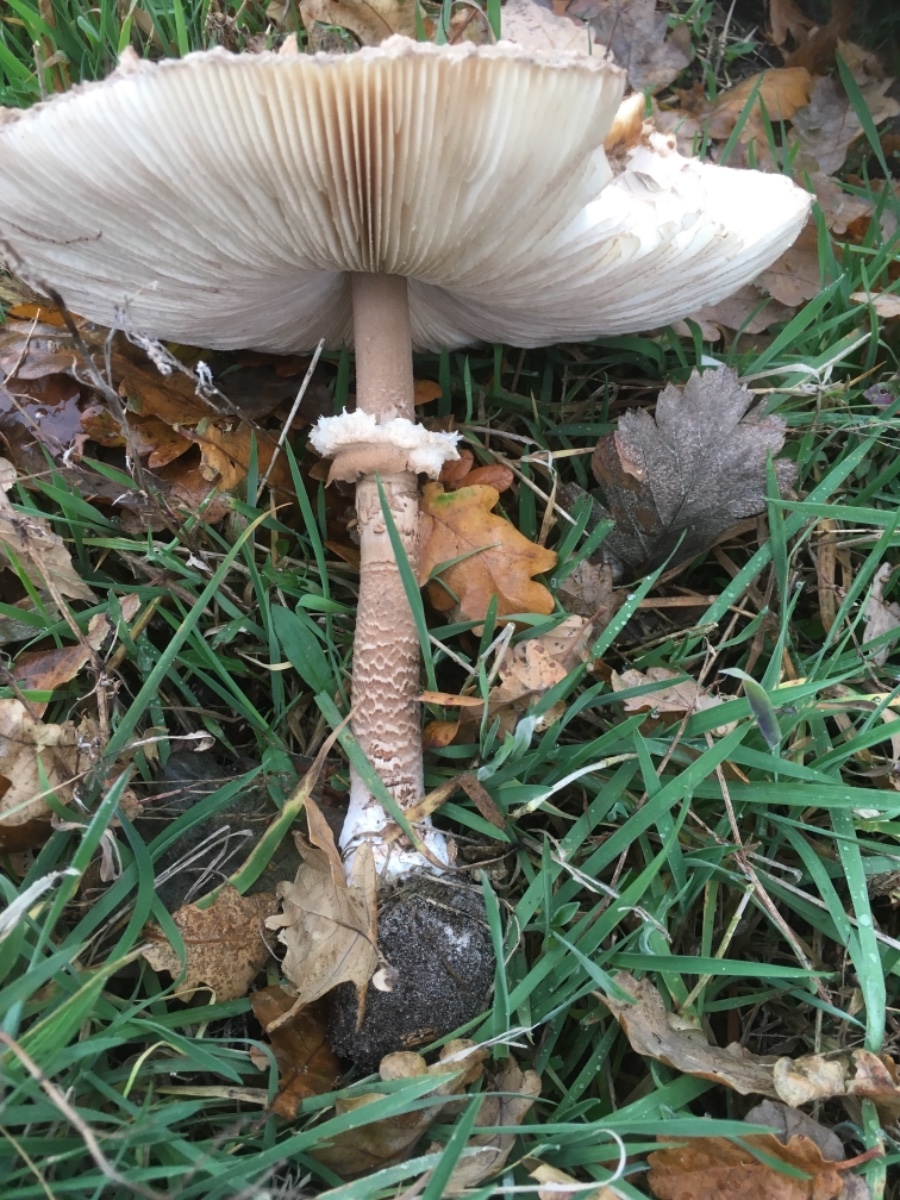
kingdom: Fungi
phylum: Basidiomycota
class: Agaricomycetes
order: Agaricales
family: Agaricaceae
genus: Macrolepiota
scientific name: Macrolepiota procera
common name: stor kæmpeparasolhat
